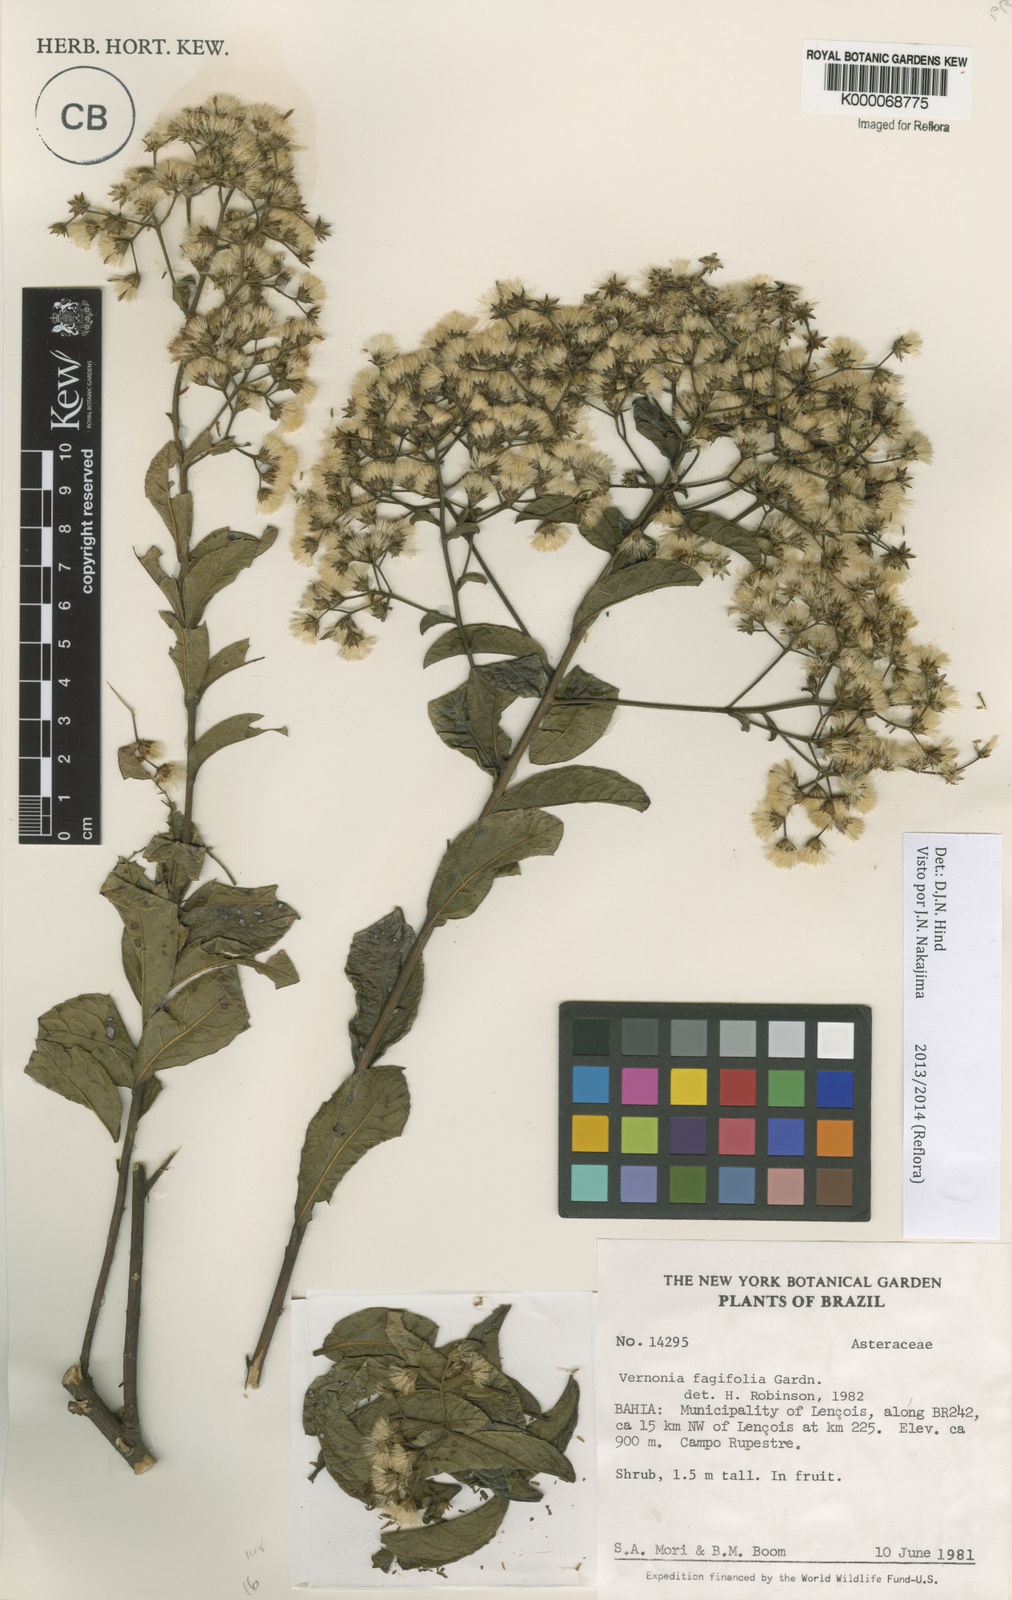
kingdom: Plantae
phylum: Tracheophyta
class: Magnoliopsida
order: Asterales
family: Asteraceae
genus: Vernonanthura
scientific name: Vernonanthura fagifolia
